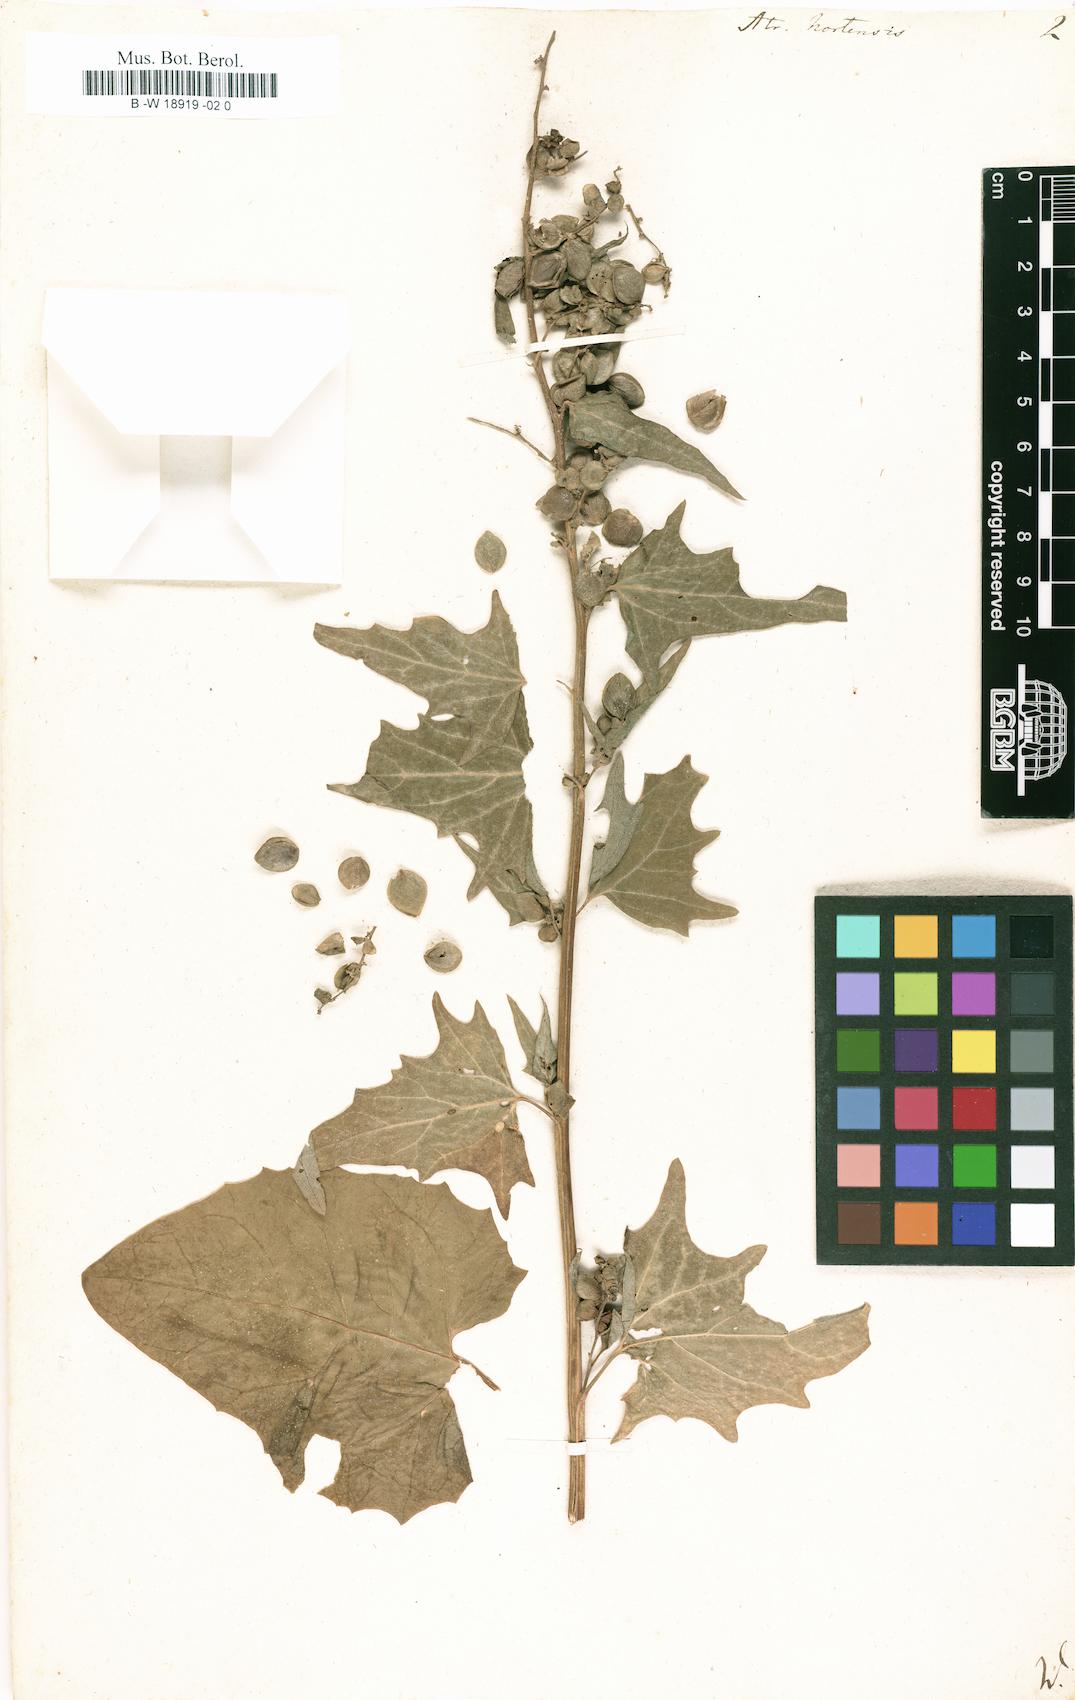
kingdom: Plantae
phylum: Tracheophyta
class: Magnoliopsida
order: Caryophyllales
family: Amaranthaceae
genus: Atriplex
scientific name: Atriplex hortensis
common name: Garden orache
